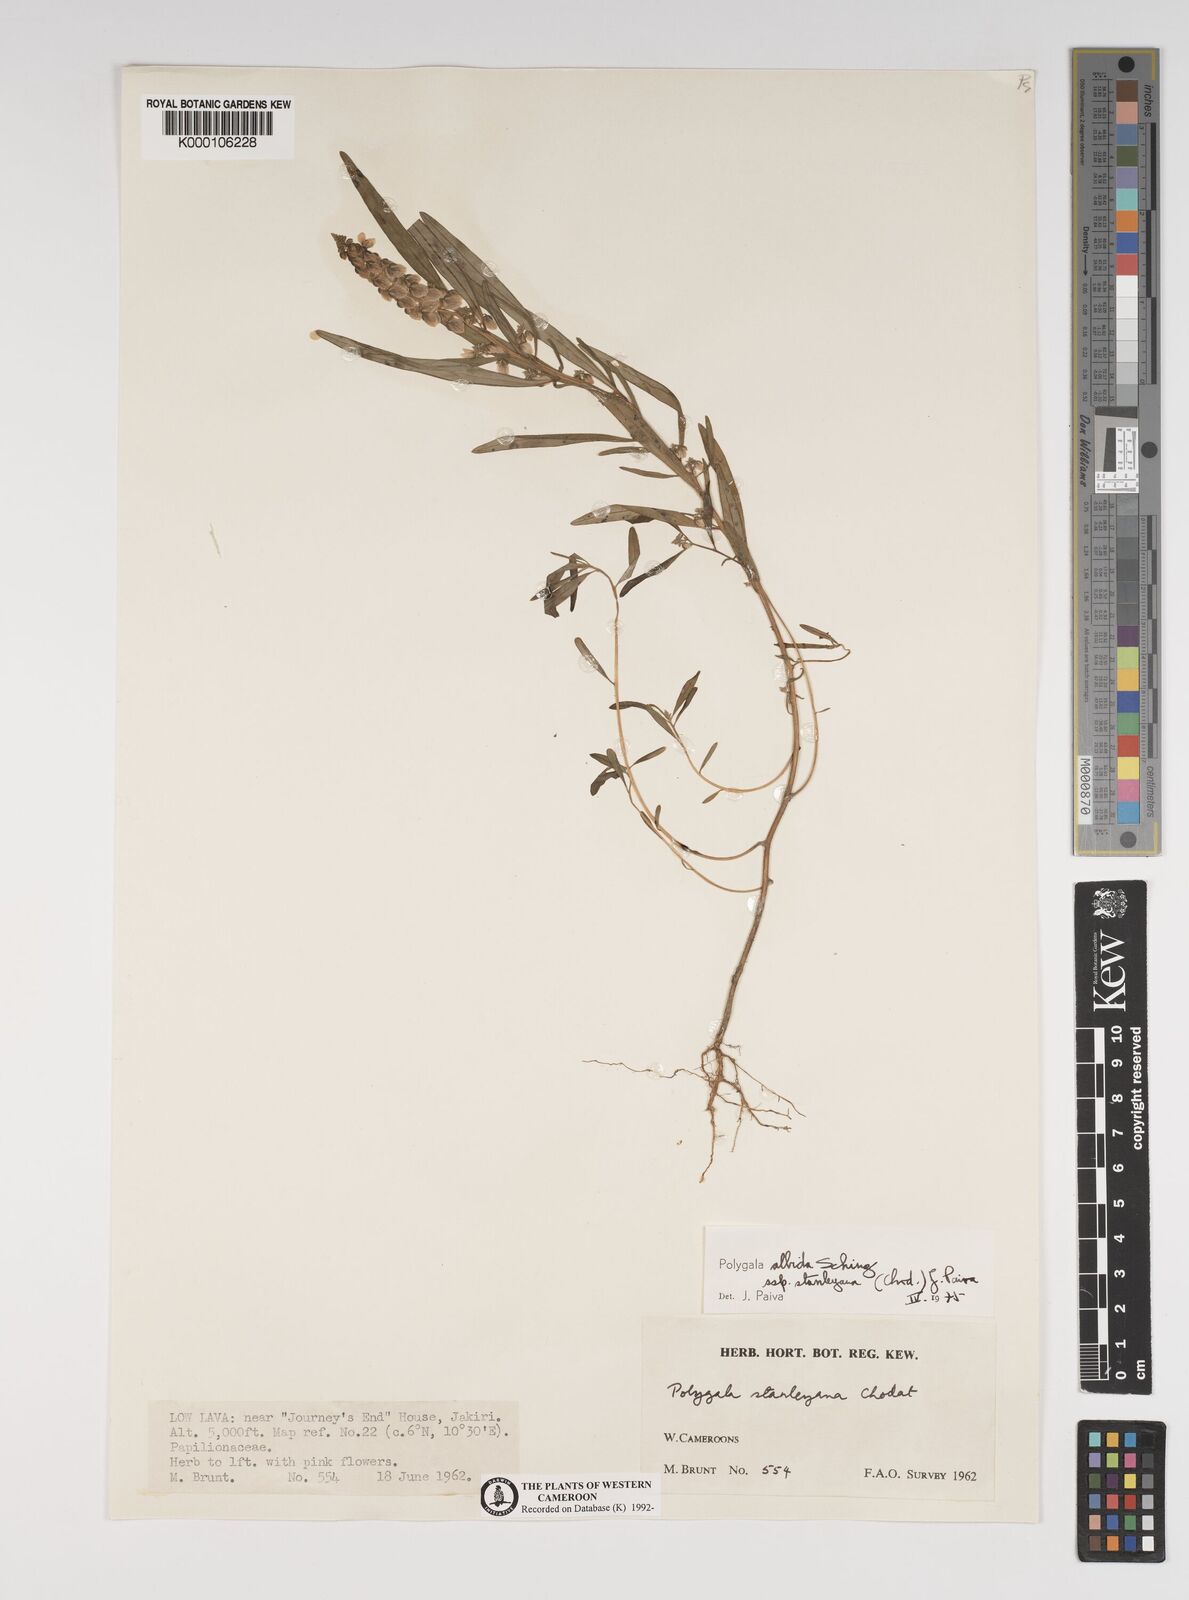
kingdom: Plantae
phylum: Tracheophyta
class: Magnoliopsida
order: Fabales
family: Polygalaceae
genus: Polygala
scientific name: Polygala
